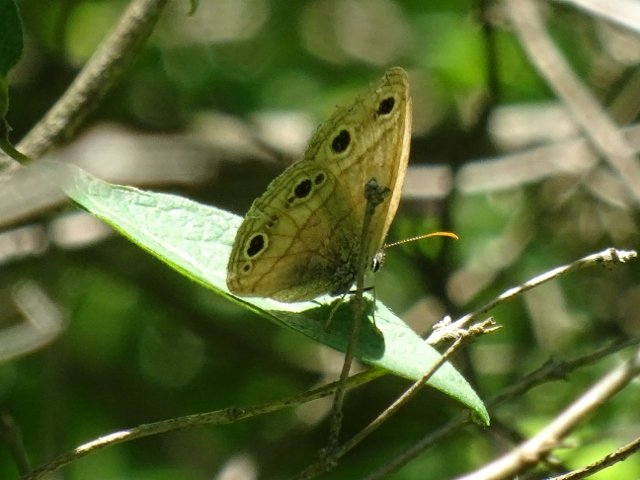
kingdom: Animalia
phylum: Arthropoda
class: Insecta
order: Lepidoptera
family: Nymphalidae
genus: Euptychia
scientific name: Euptychia cymela
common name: Little Wood Satyr
